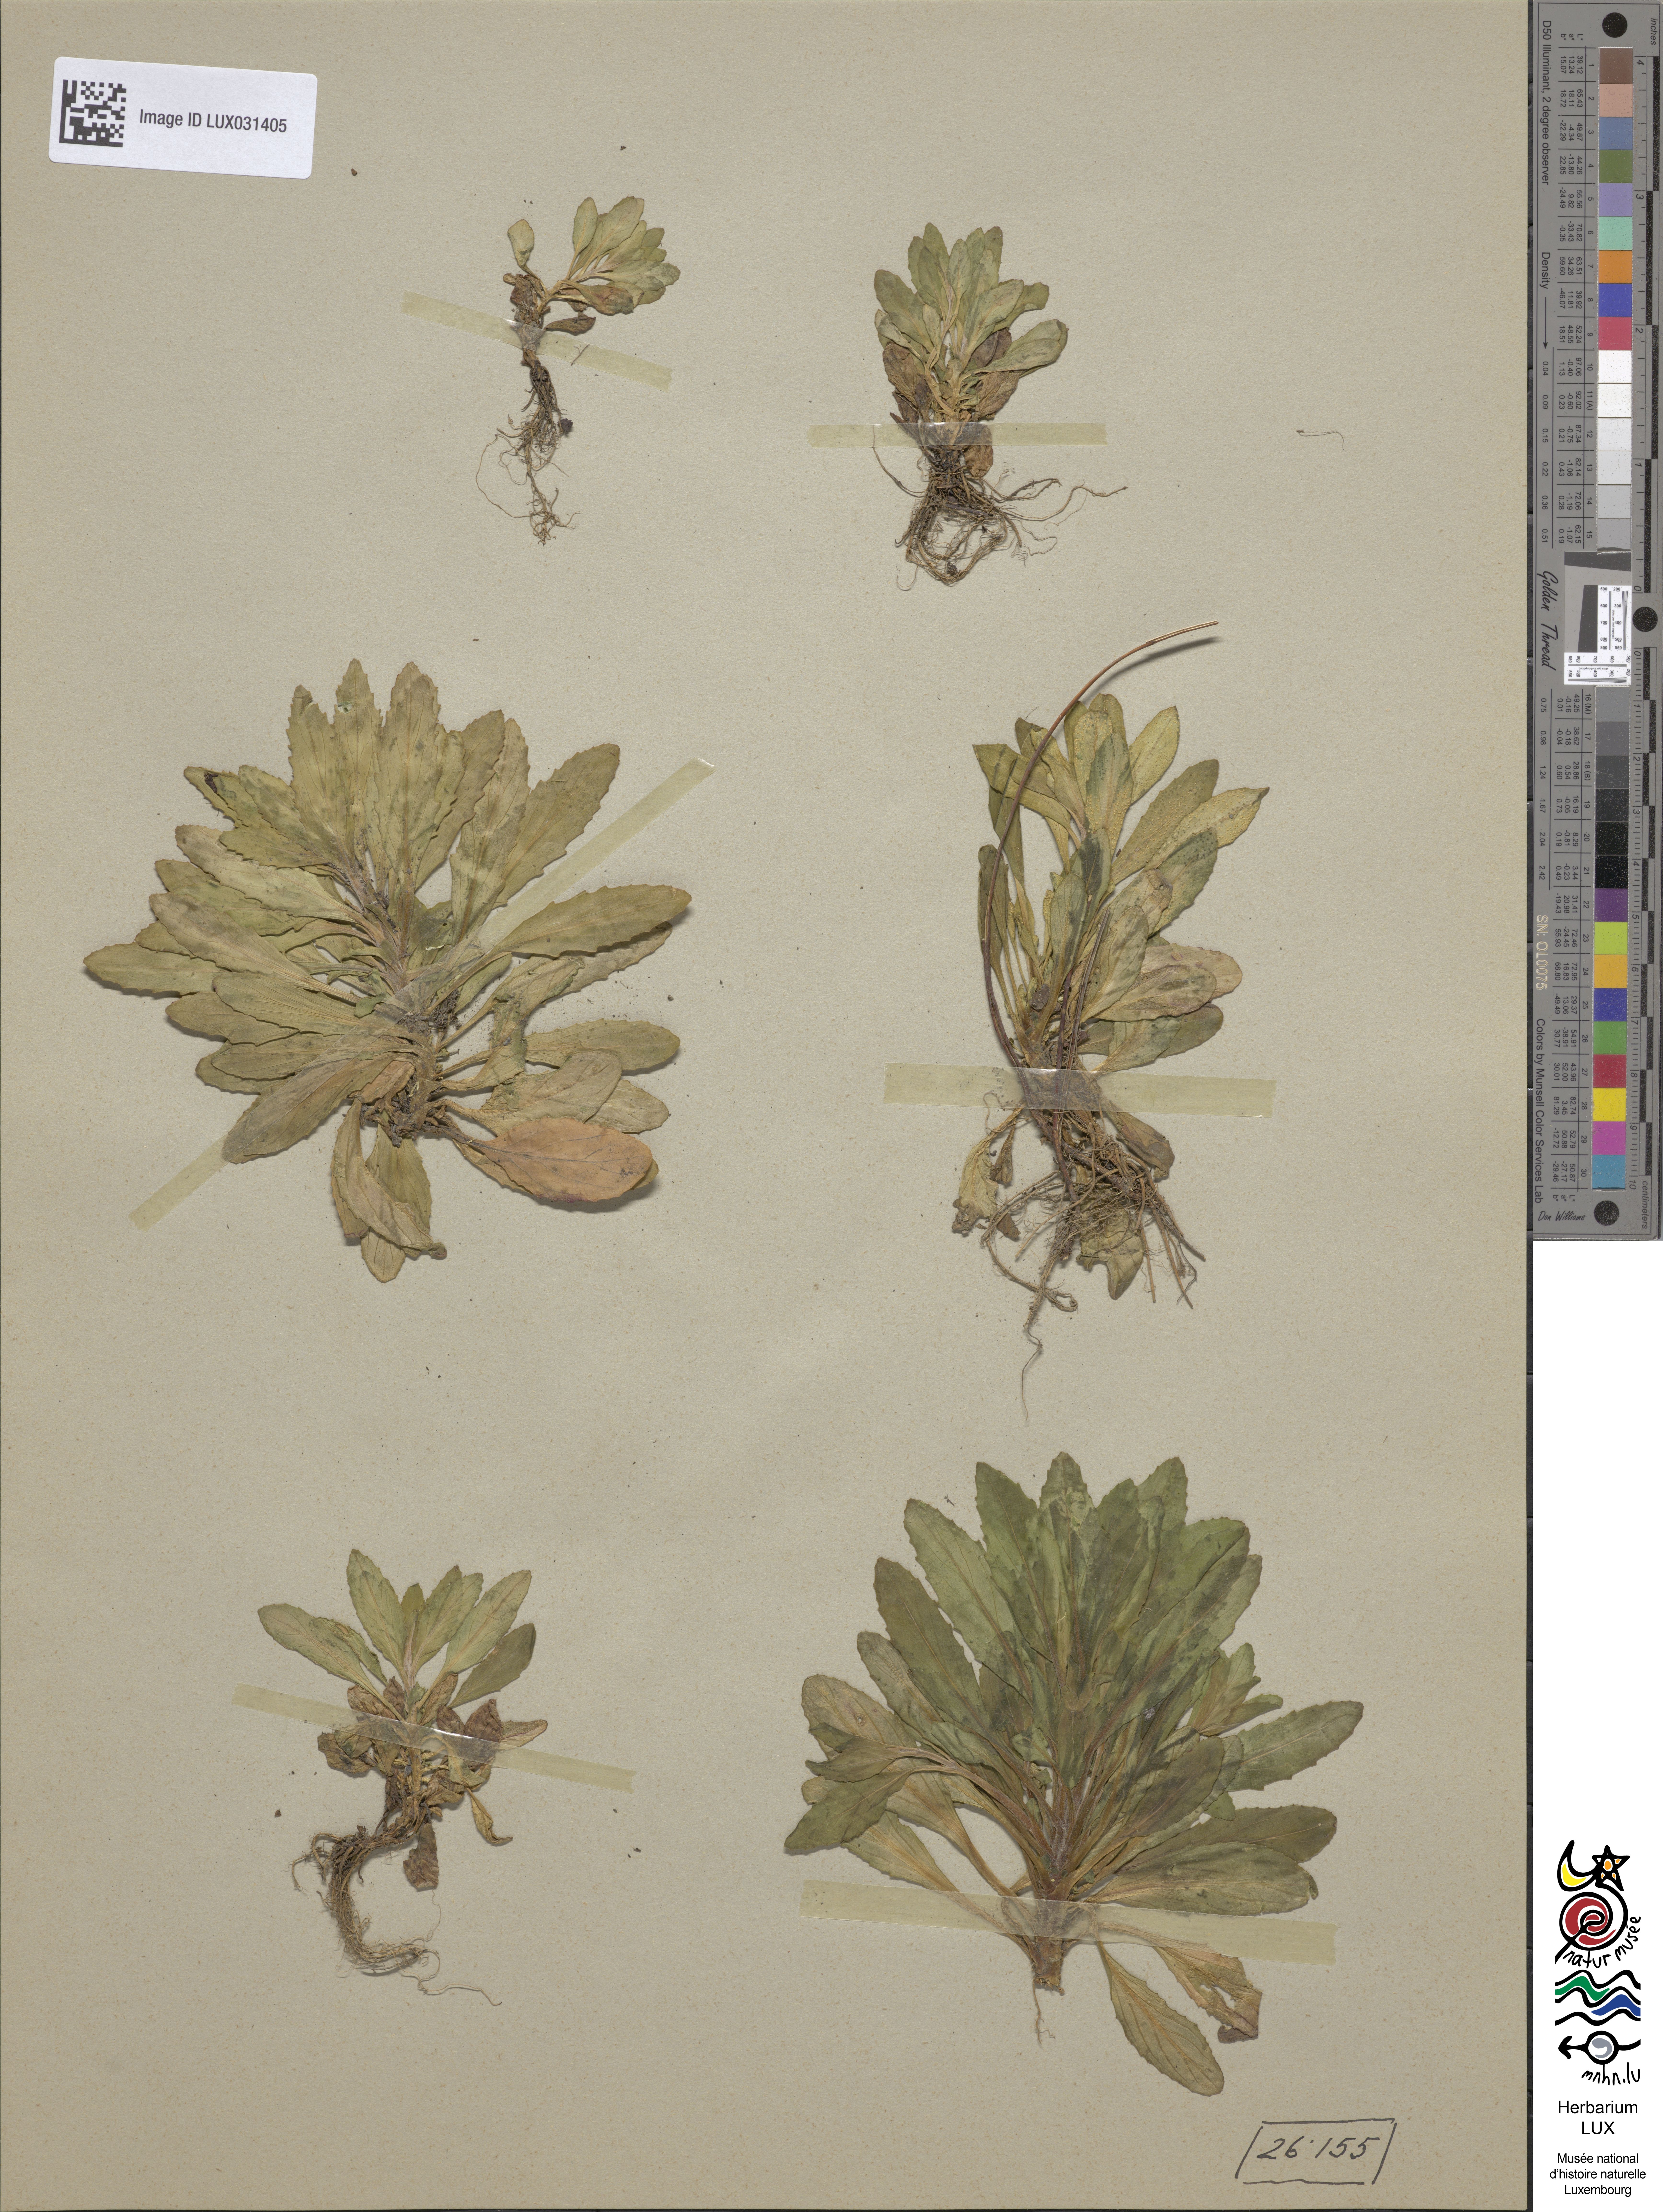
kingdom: Plantae
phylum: Tracheophyta
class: Magnoliopsida
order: Myrtales
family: Onagraceae
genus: Epilobium
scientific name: Epilobium lanceolatum
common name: Spear-leaved willowherb
